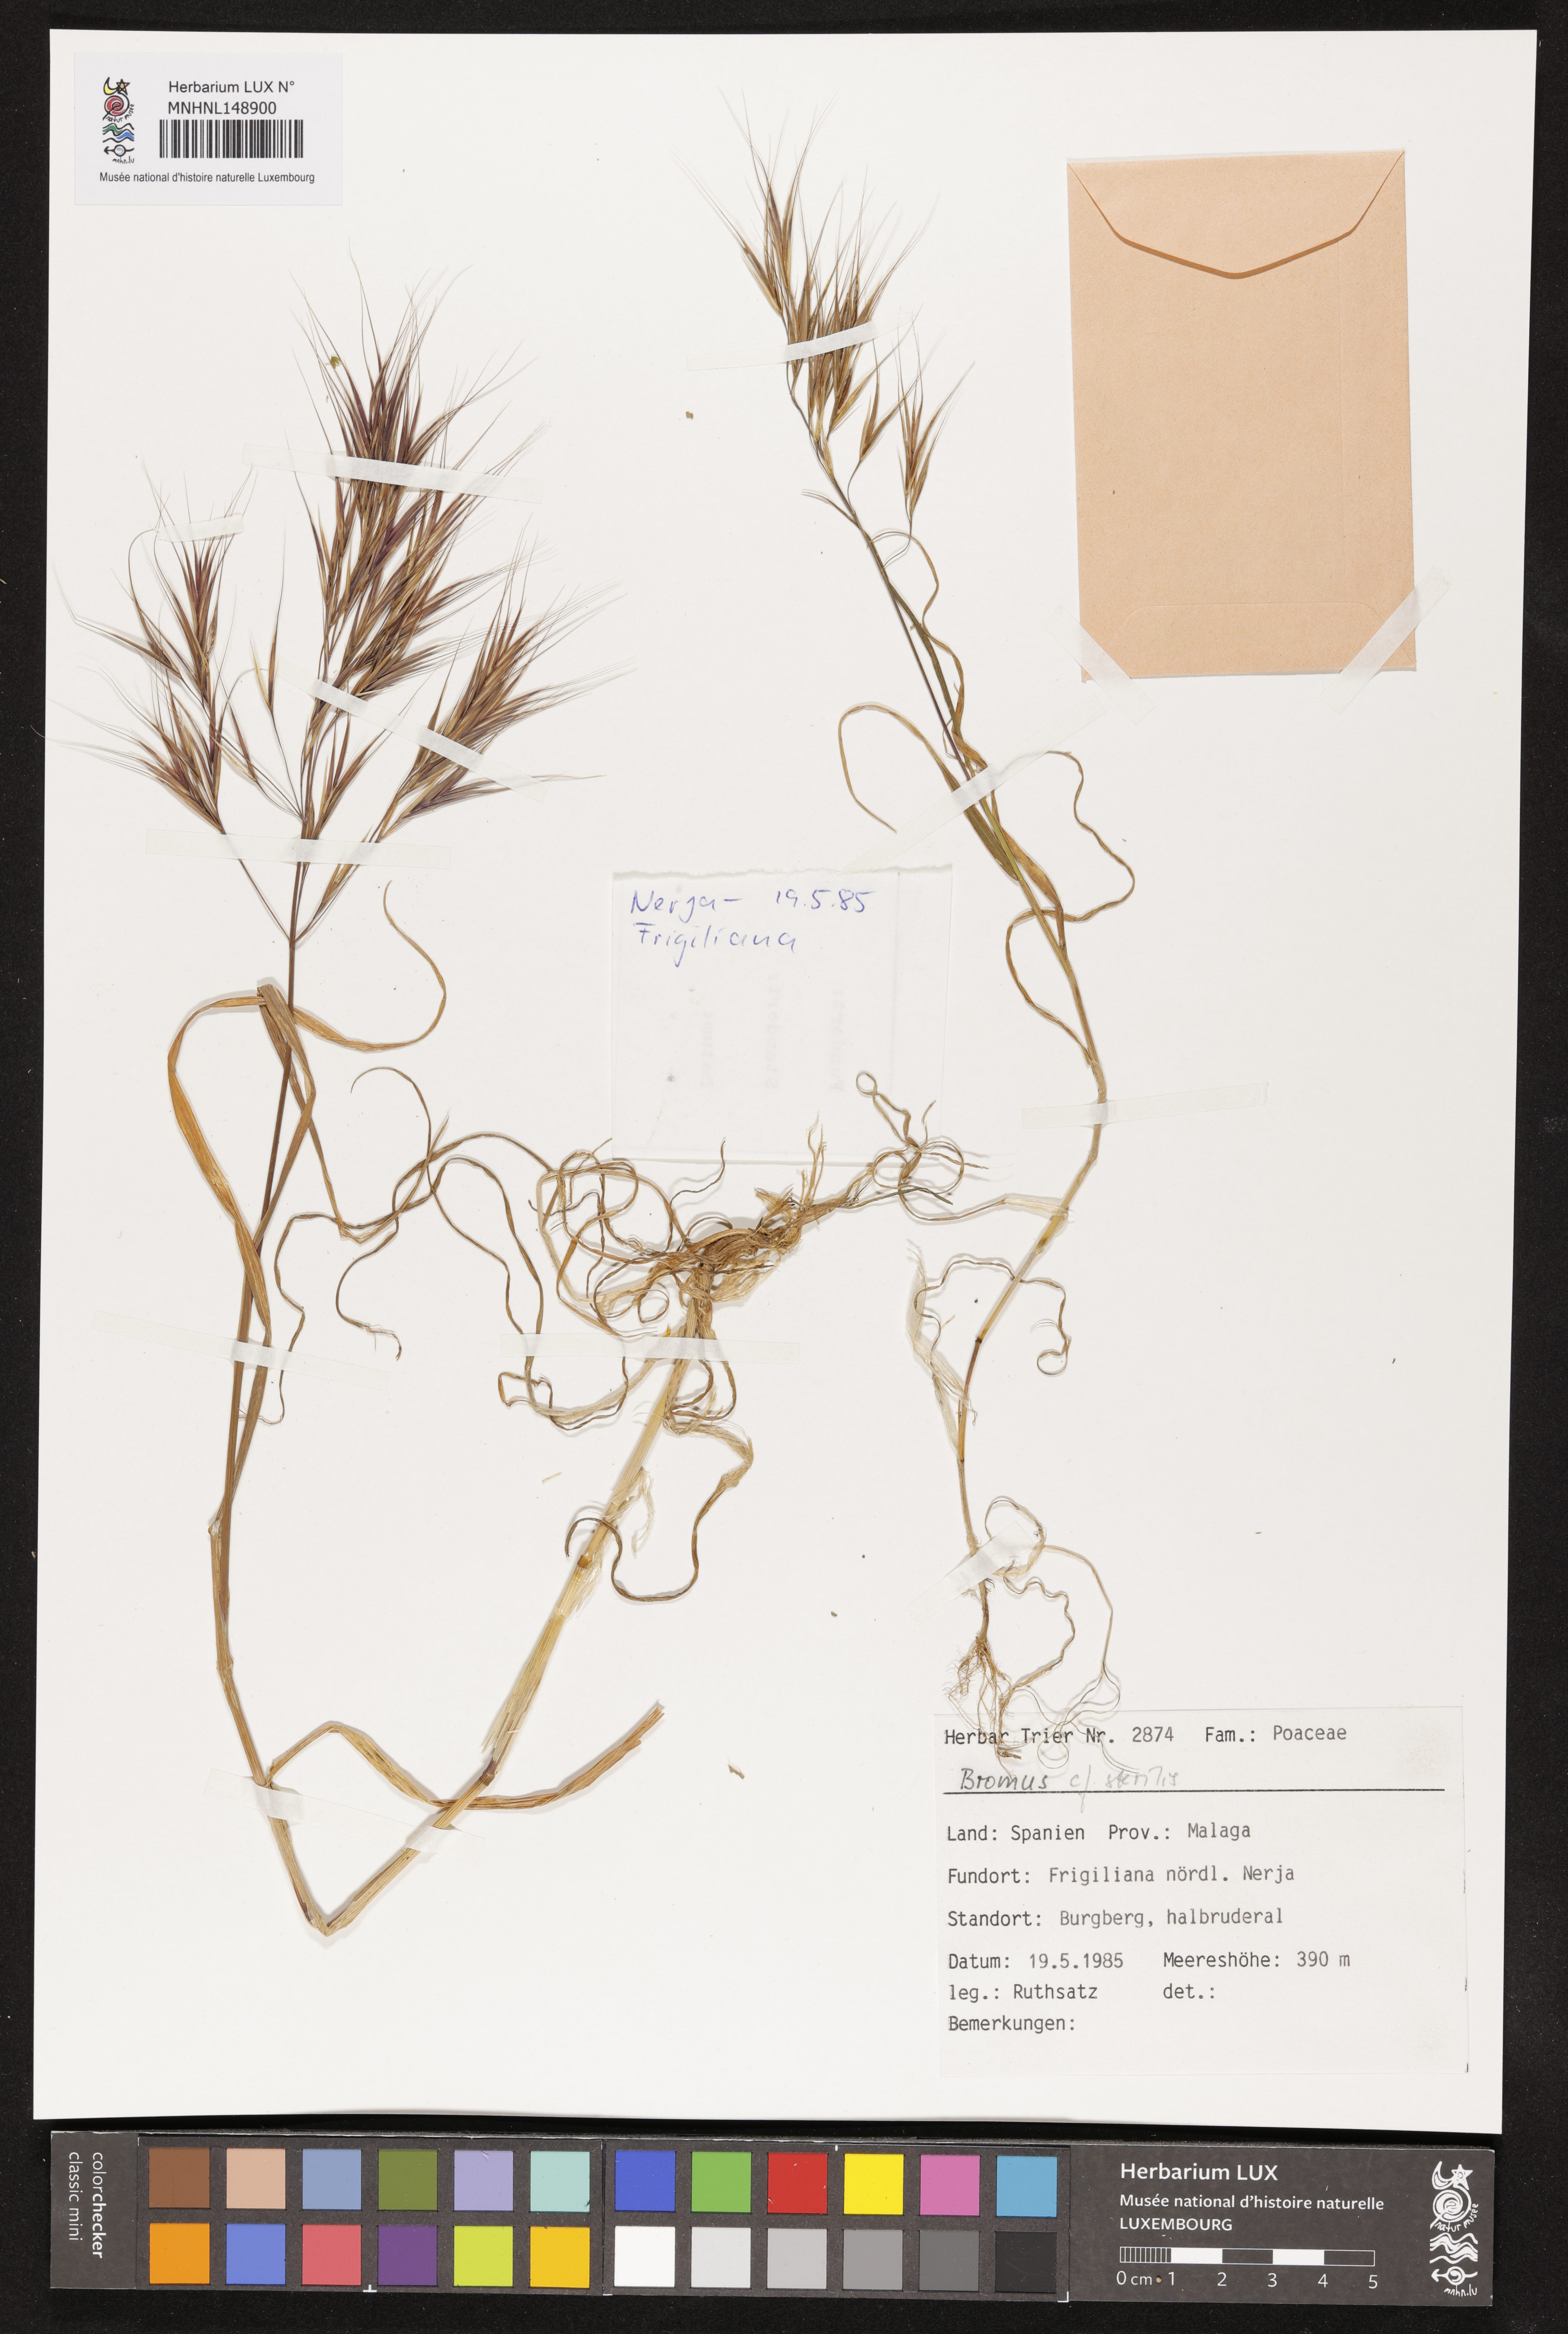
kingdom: Plantae
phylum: Tracheophyta
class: Liliopsida
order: Poales
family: Poaceae
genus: Bromus
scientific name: Bromus sterilis
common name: Poverty brome
